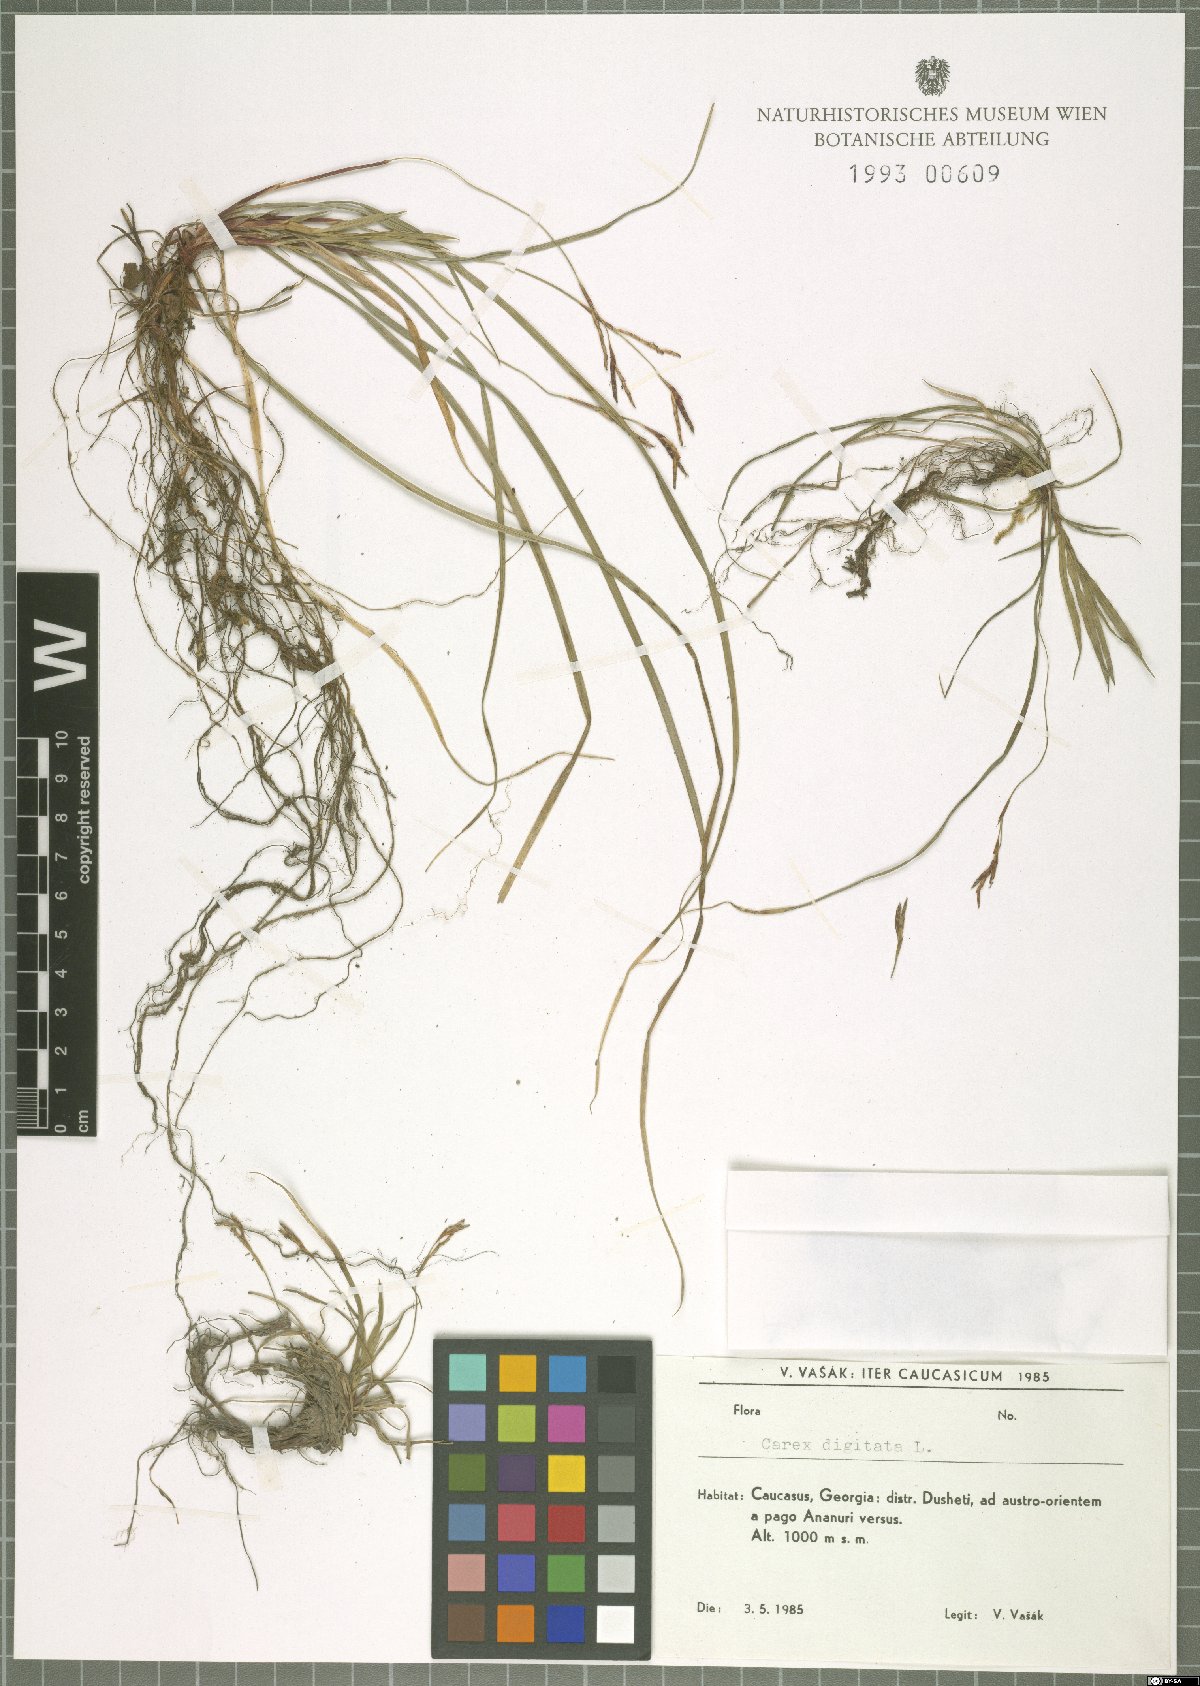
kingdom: Plantae
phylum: Tracheophyta
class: Liliopsida
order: Poales
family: Cyperaceae
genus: Carex
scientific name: Carex digitata
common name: Fingered sedge
